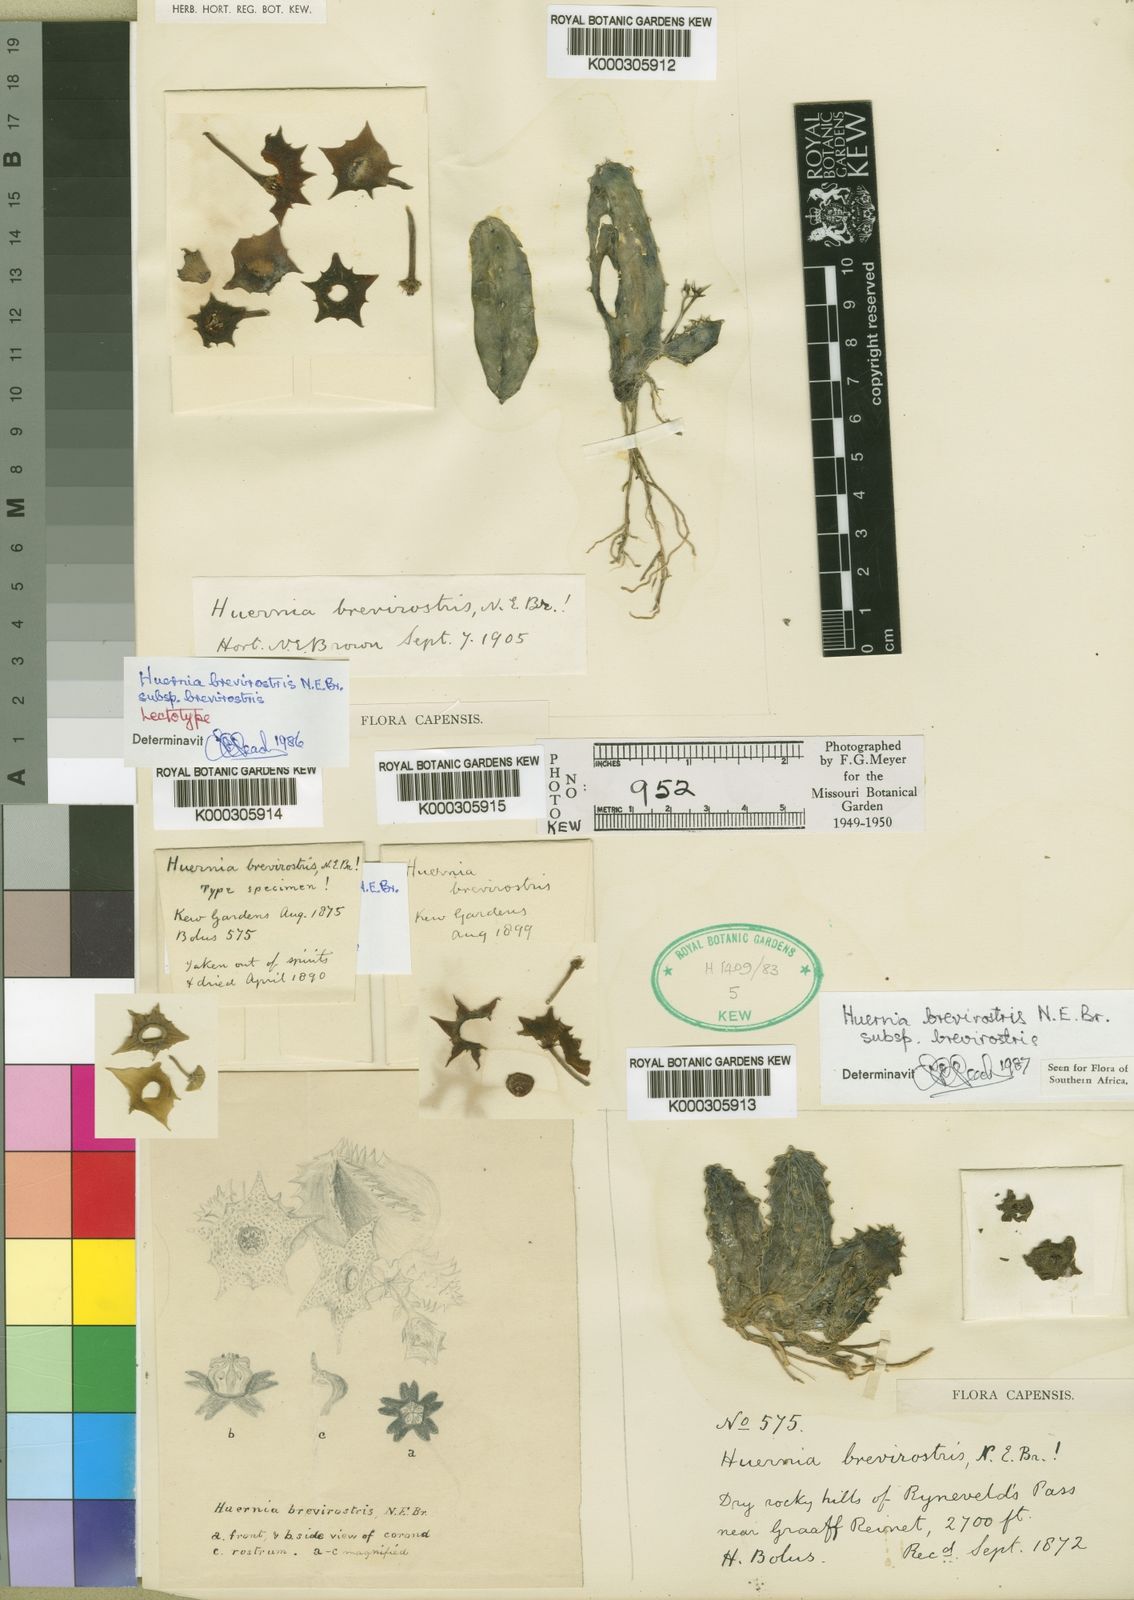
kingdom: Plantae
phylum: Tracheophyta
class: Magnoliopsida
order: Gentianales
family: Apocynaceae
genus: Ceropegia
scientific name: Ceropegia thuretii
